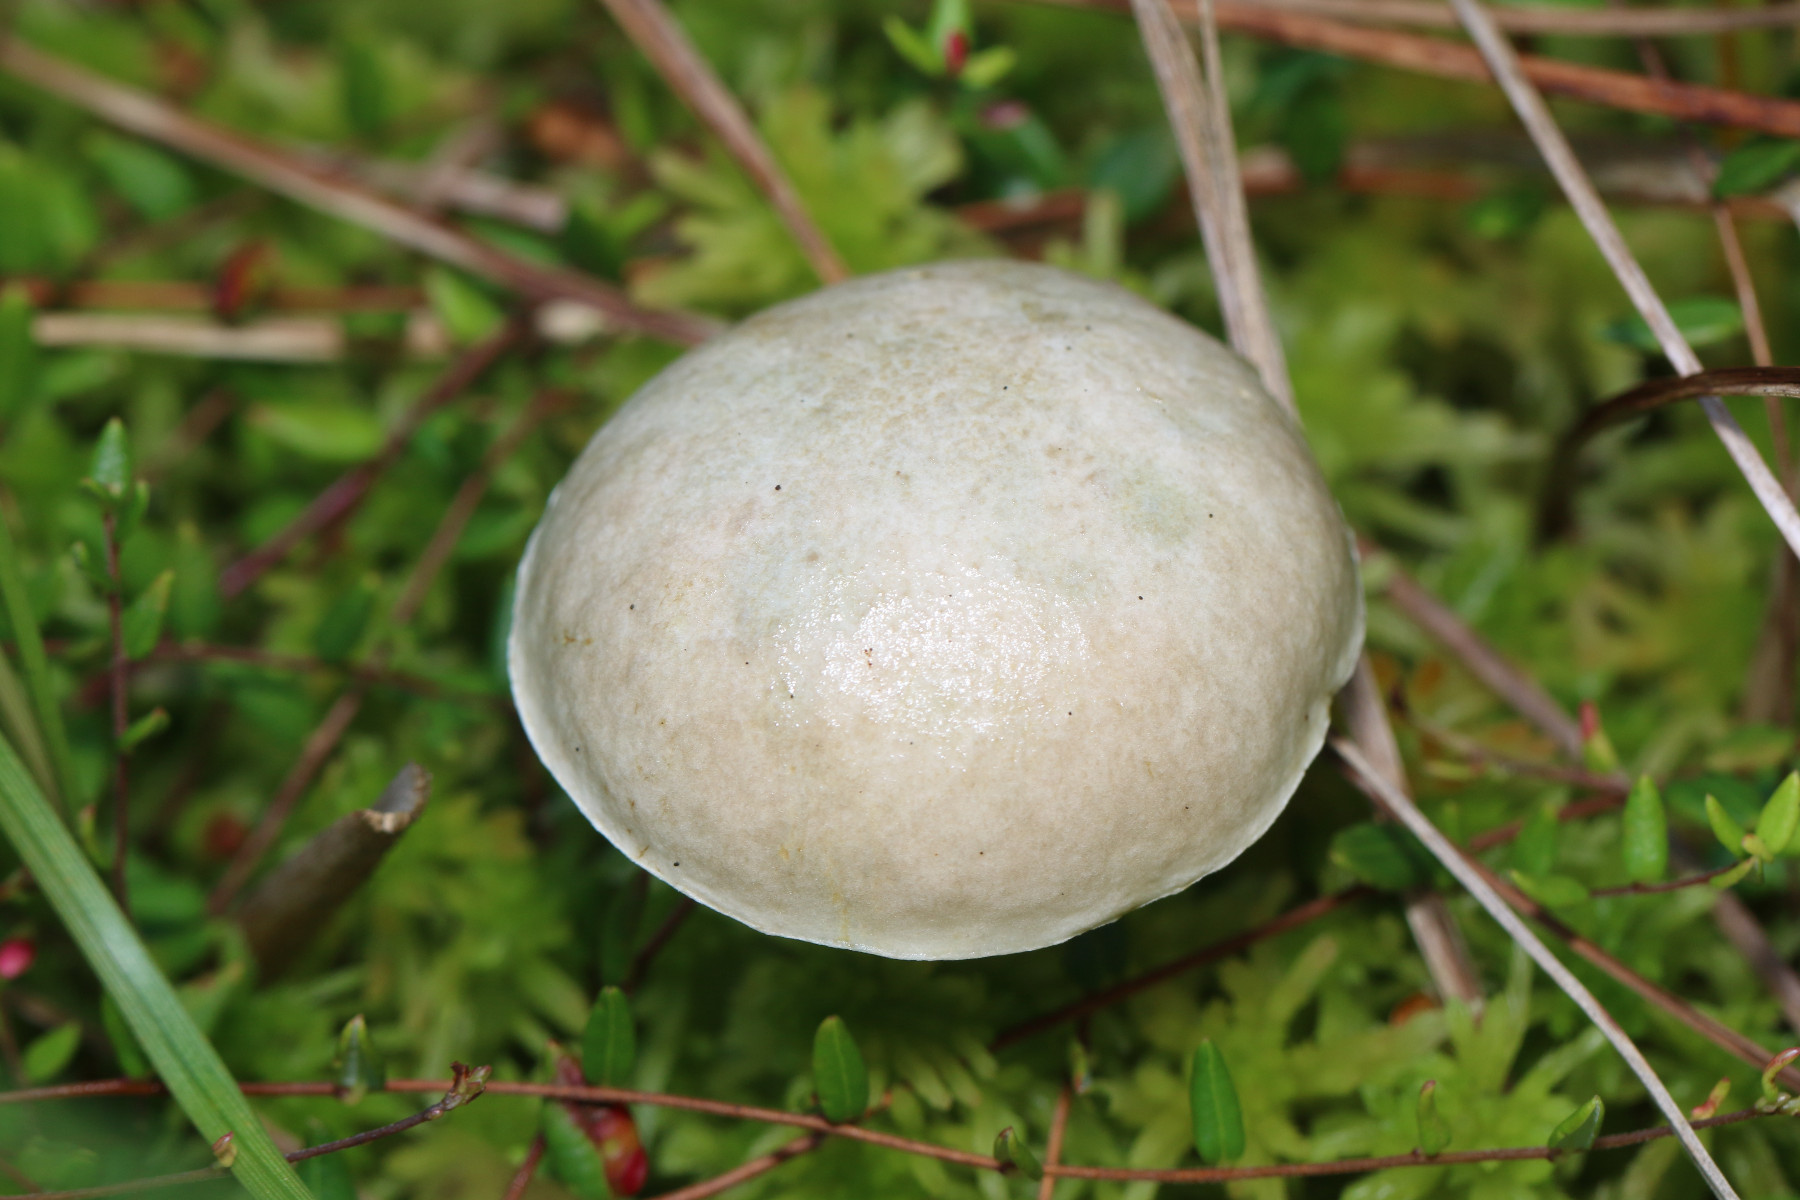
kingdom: Fungi
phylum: Basidiomycota
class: Agaricomycetes
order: Boletales
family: Boletaceae
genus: Leccinum
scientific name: Leccinum scabrum
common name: hvid skælrørhat
